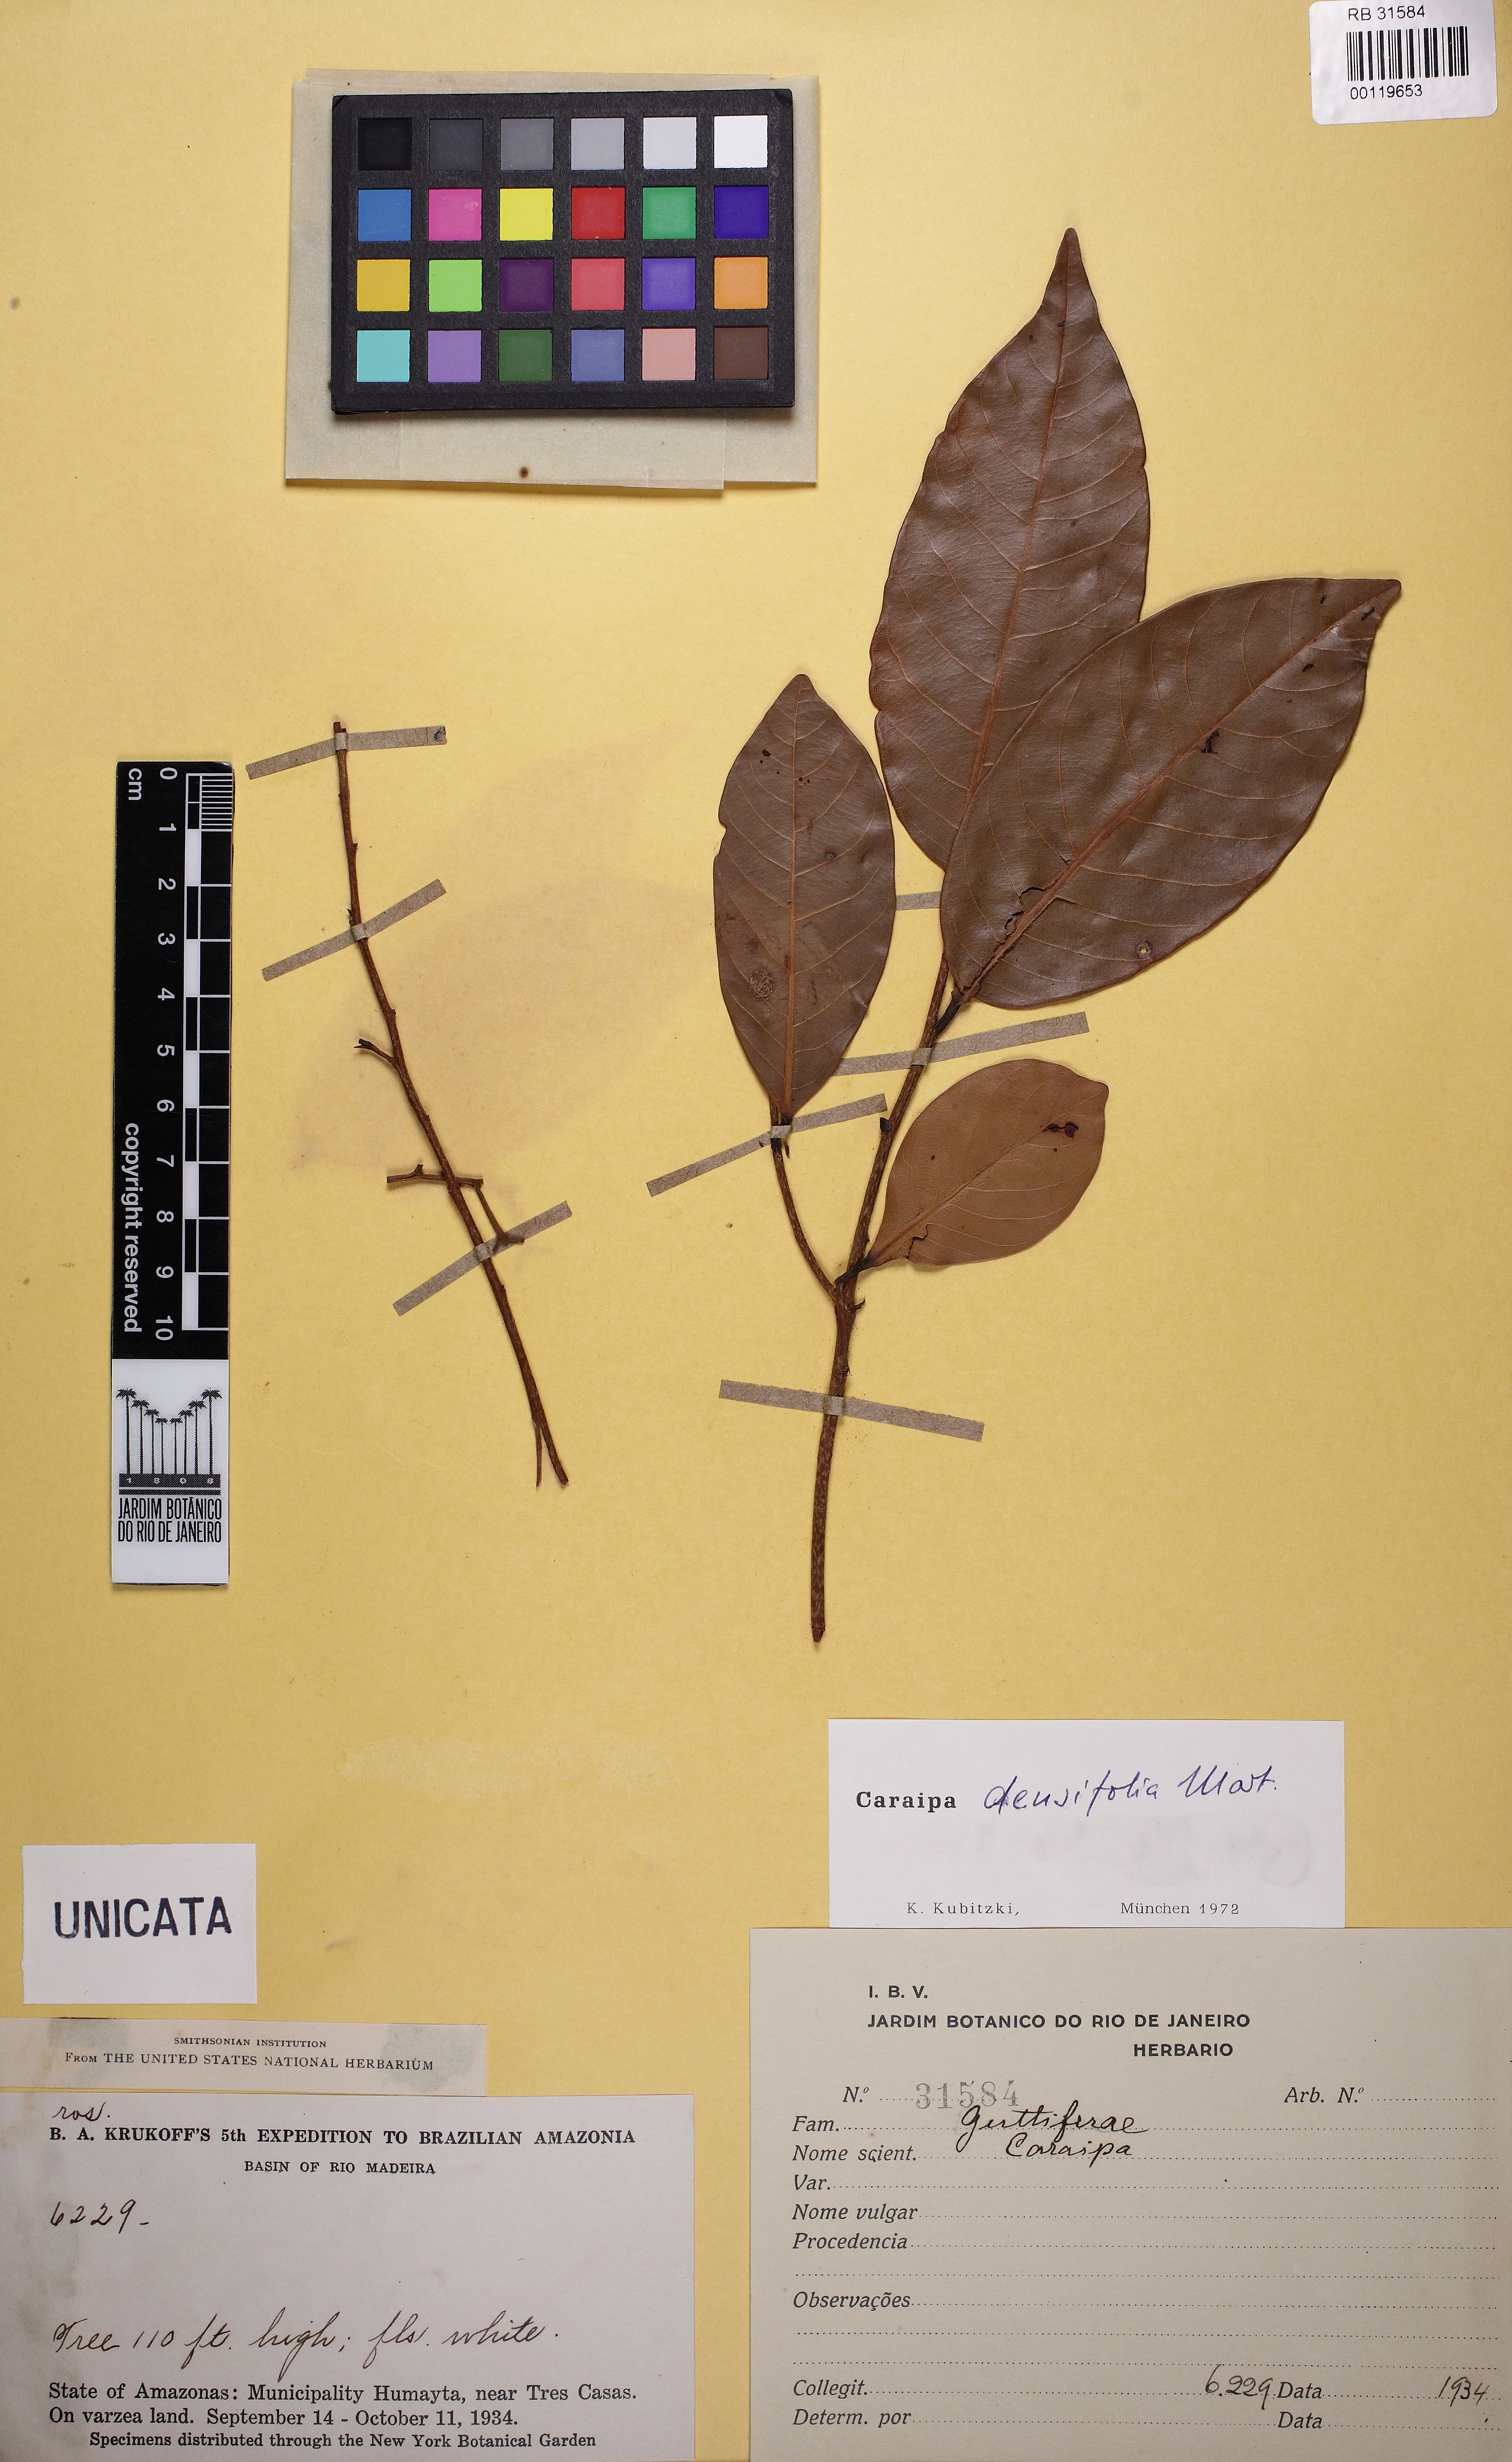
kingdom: Plantae
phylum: Tracheophyta
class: Magnoliopsida
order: Malpighiales
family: Calophyllaceae
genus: Caraipa
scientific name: Caraipa densifolia
